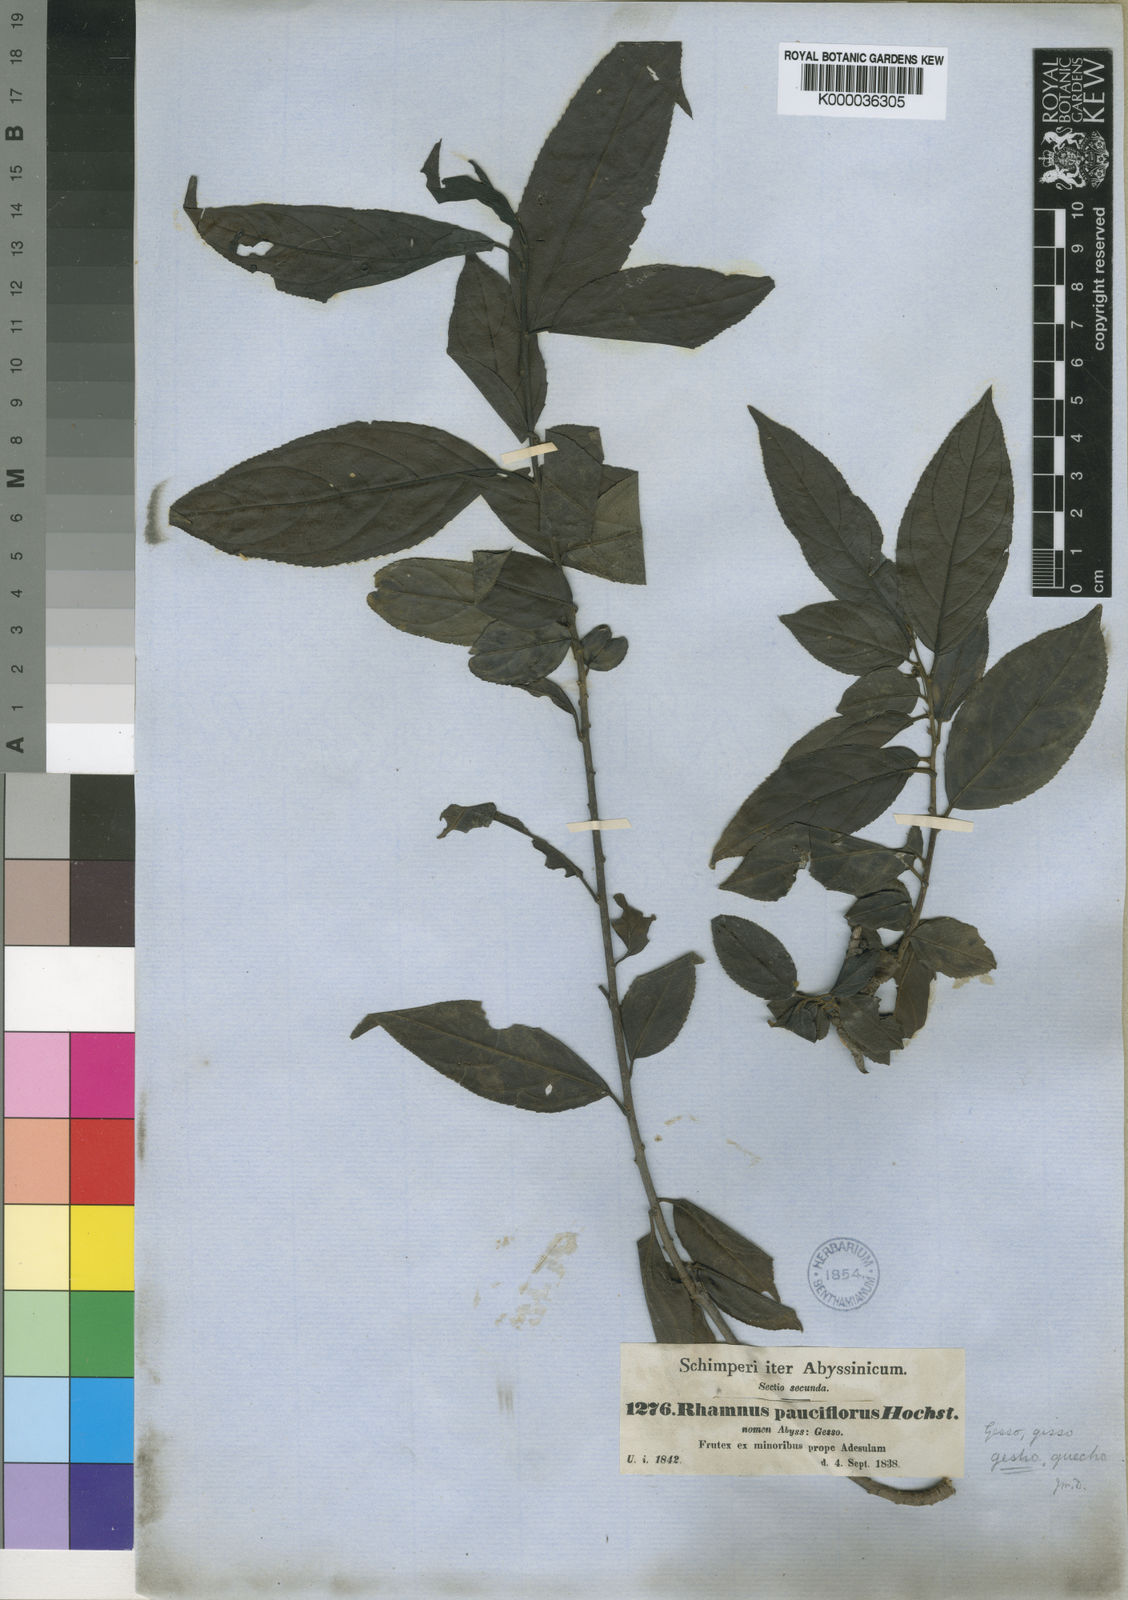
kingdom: Plantae
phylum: Tracheophyta
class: Magnoliopsida
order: Rosales
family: Rhamnaceae
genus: Rhamnus
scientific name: Rhamnus
